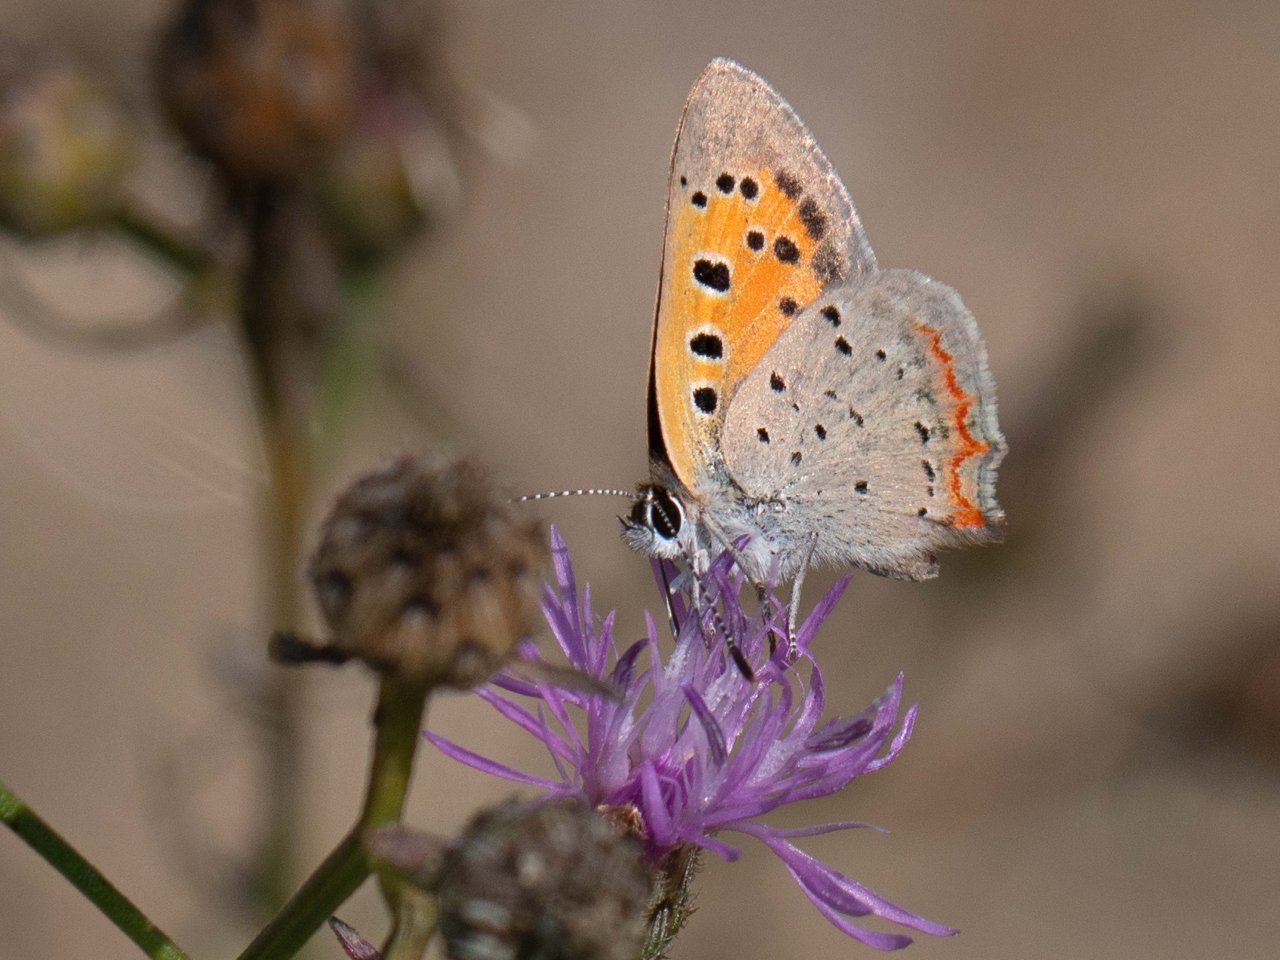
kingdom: Animalia
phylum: Arthropoda
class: Insecta
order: Lepidoptera
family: Lycaenidae
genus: Lycaena
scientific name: Lycaena phlaeas
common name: American Copper
